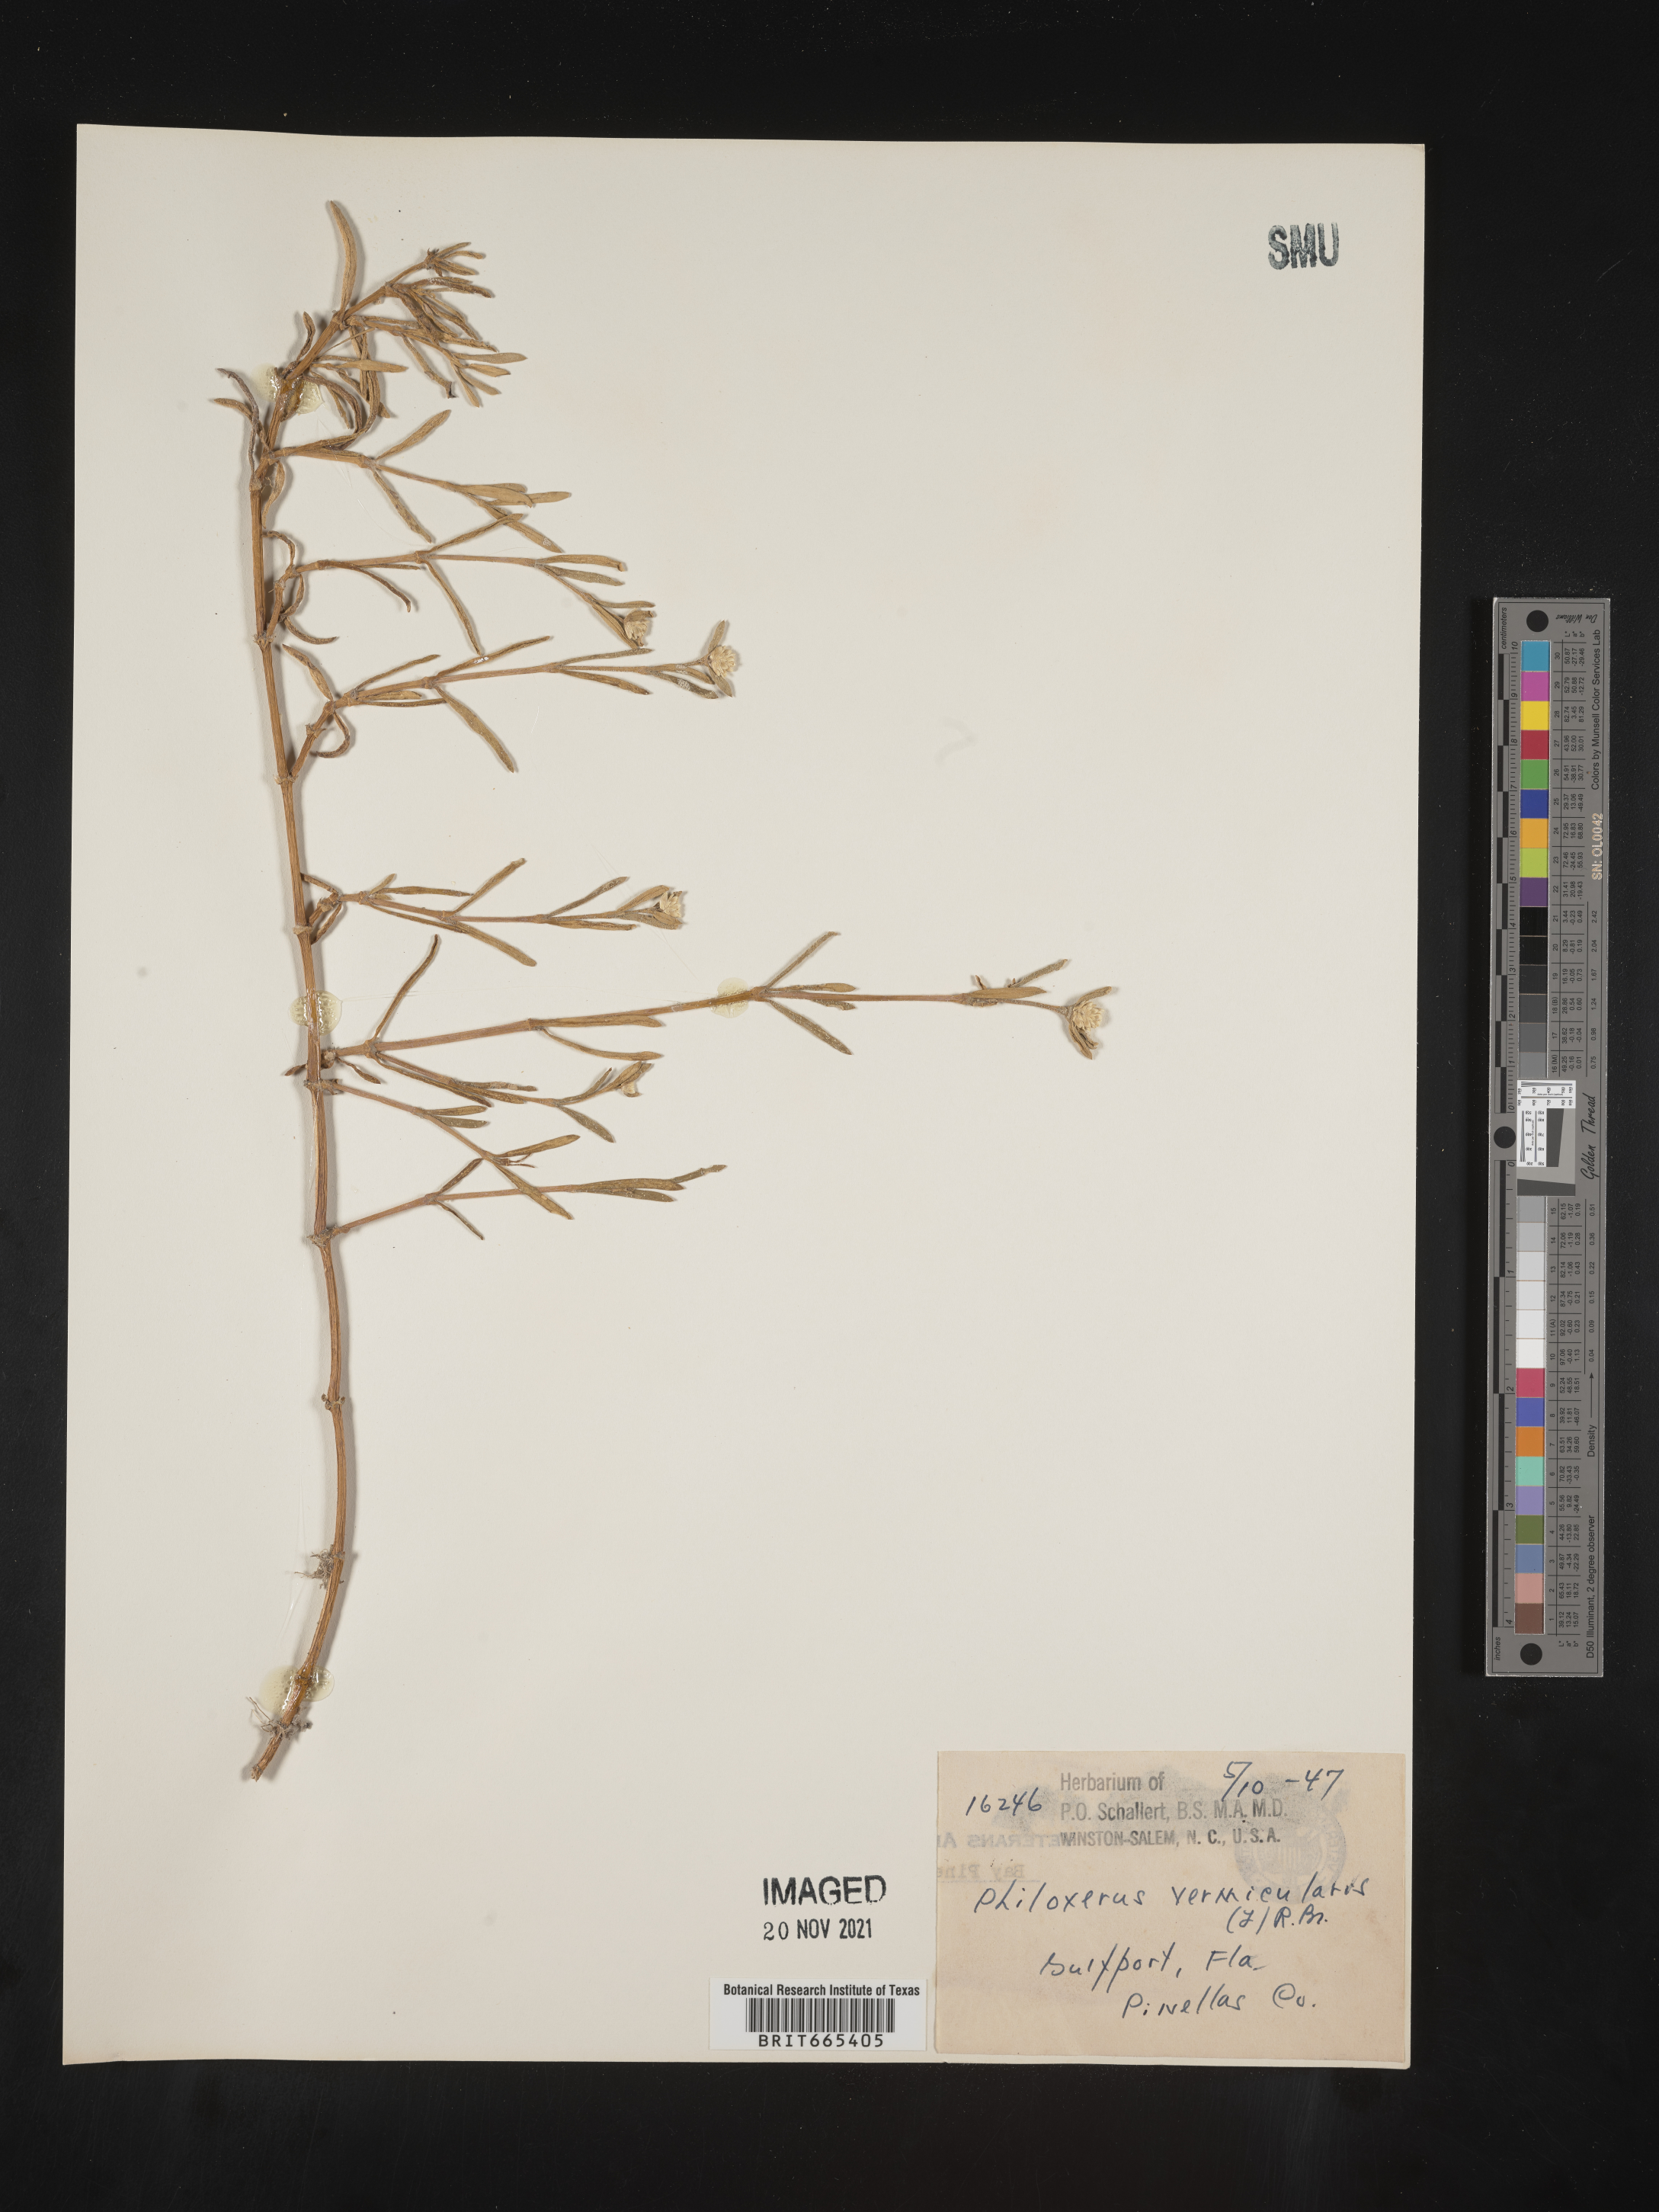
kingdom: Plantae
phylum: Tracheophyta
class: Magnoliopsida
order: Caryophyllales
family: Amaranthaceae
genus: Gomphrena
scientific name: Gomphrena
